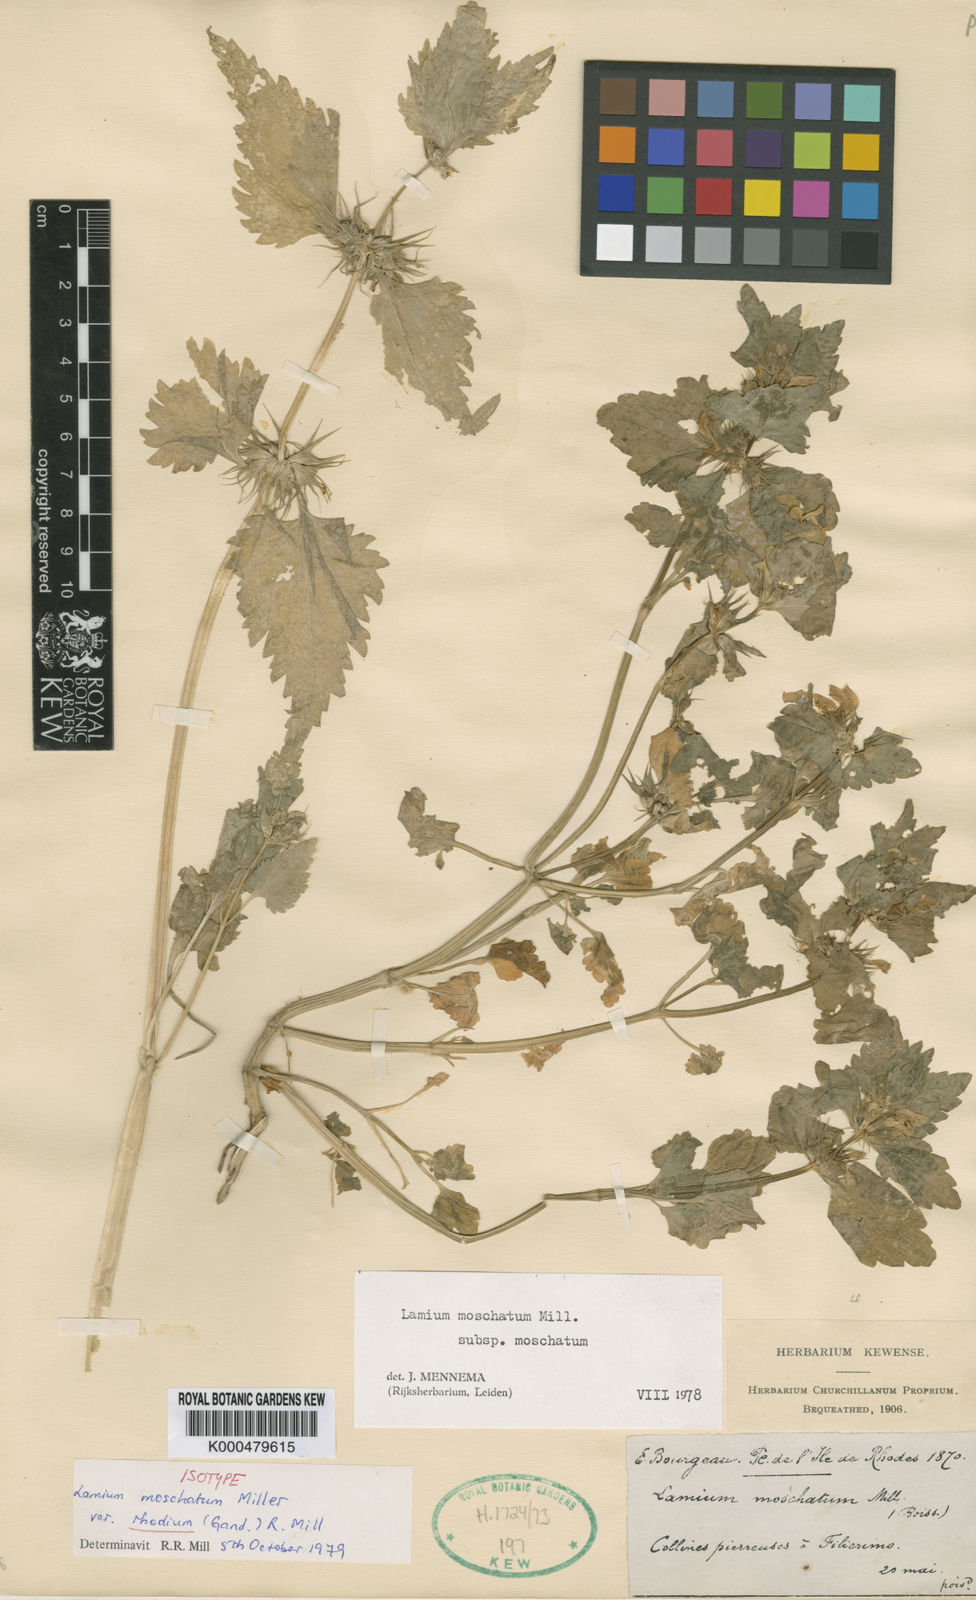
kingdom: Plantae
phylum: Tracheophyta
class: Magnoliopsida
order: Lamiales
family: Lamiaceae
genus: Lamium
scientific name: Lamium moschatum
